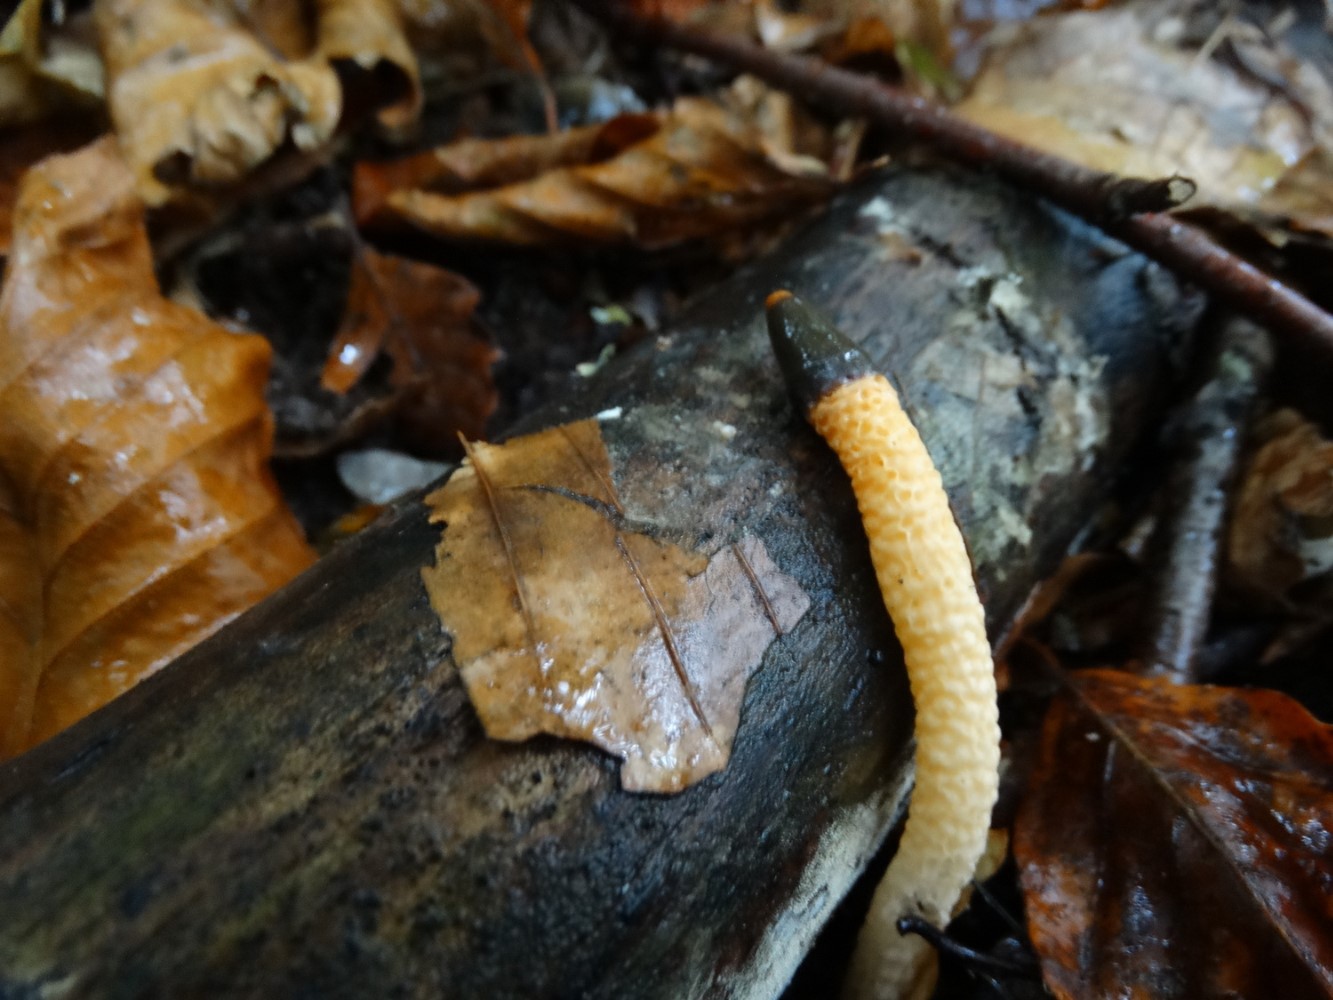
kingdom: Fungi
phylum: Basidiomycota
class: Agaricomycetes
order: Phallales
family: Phallaceae
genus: Mutinus
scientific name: Mutinus caninus
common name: hunde-stinksvamp
